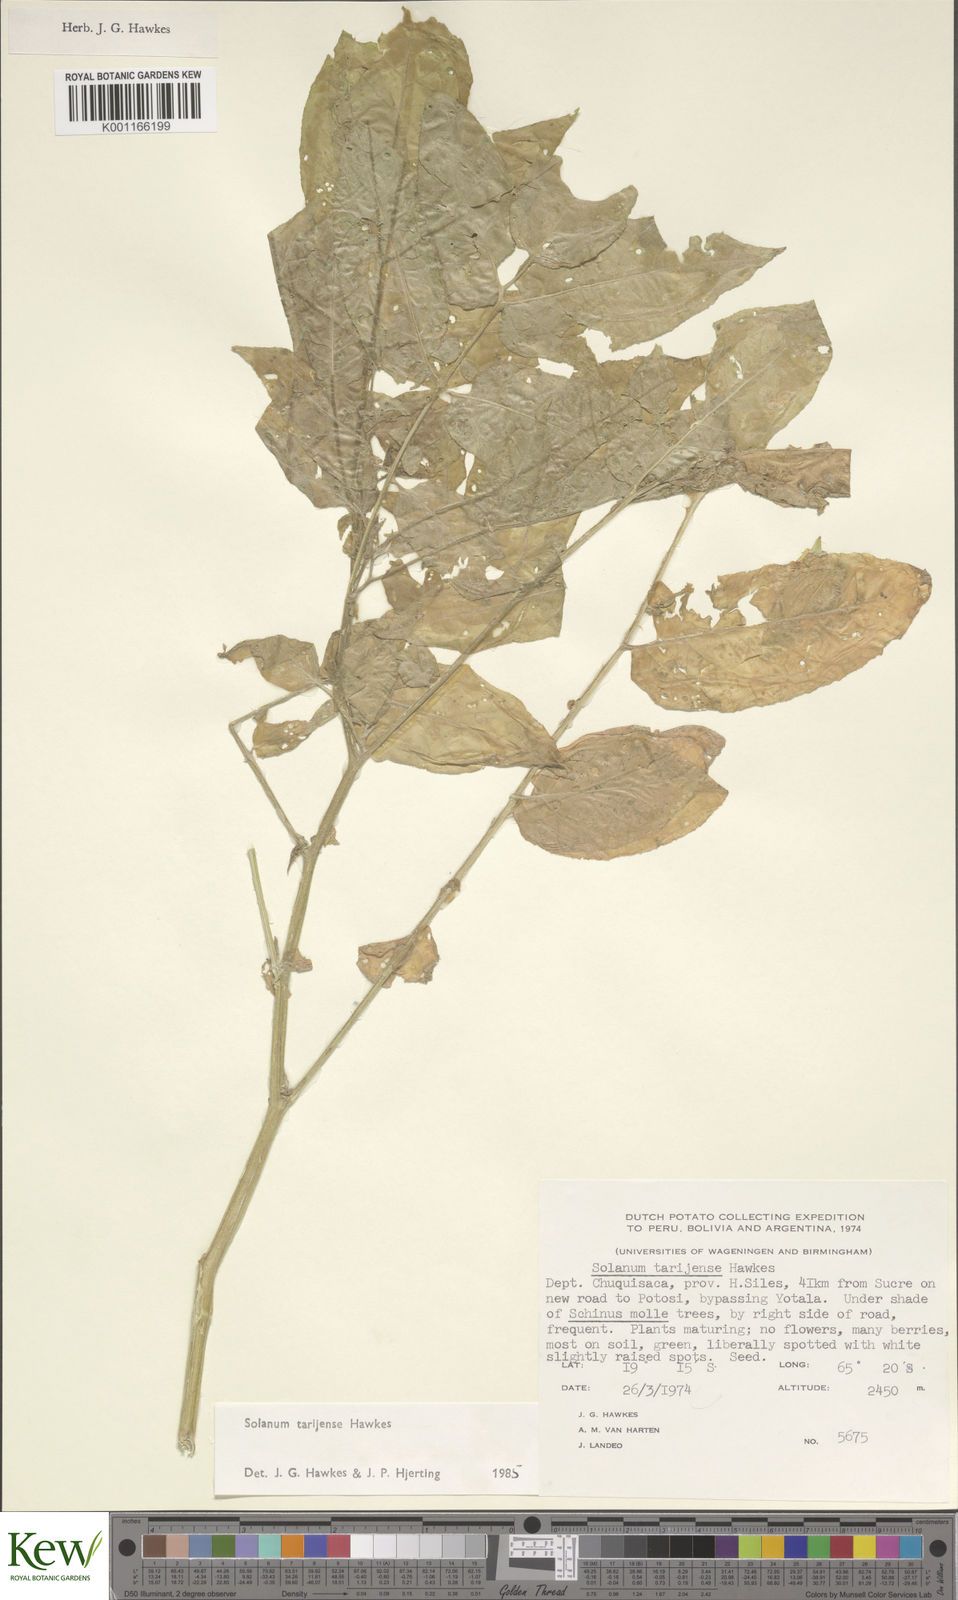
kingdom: Plantae
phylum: Tracheophyta
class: Magnoliopsida
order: Solanales
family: Solanaceae
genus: Solanum
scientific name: Solanum tarijense
